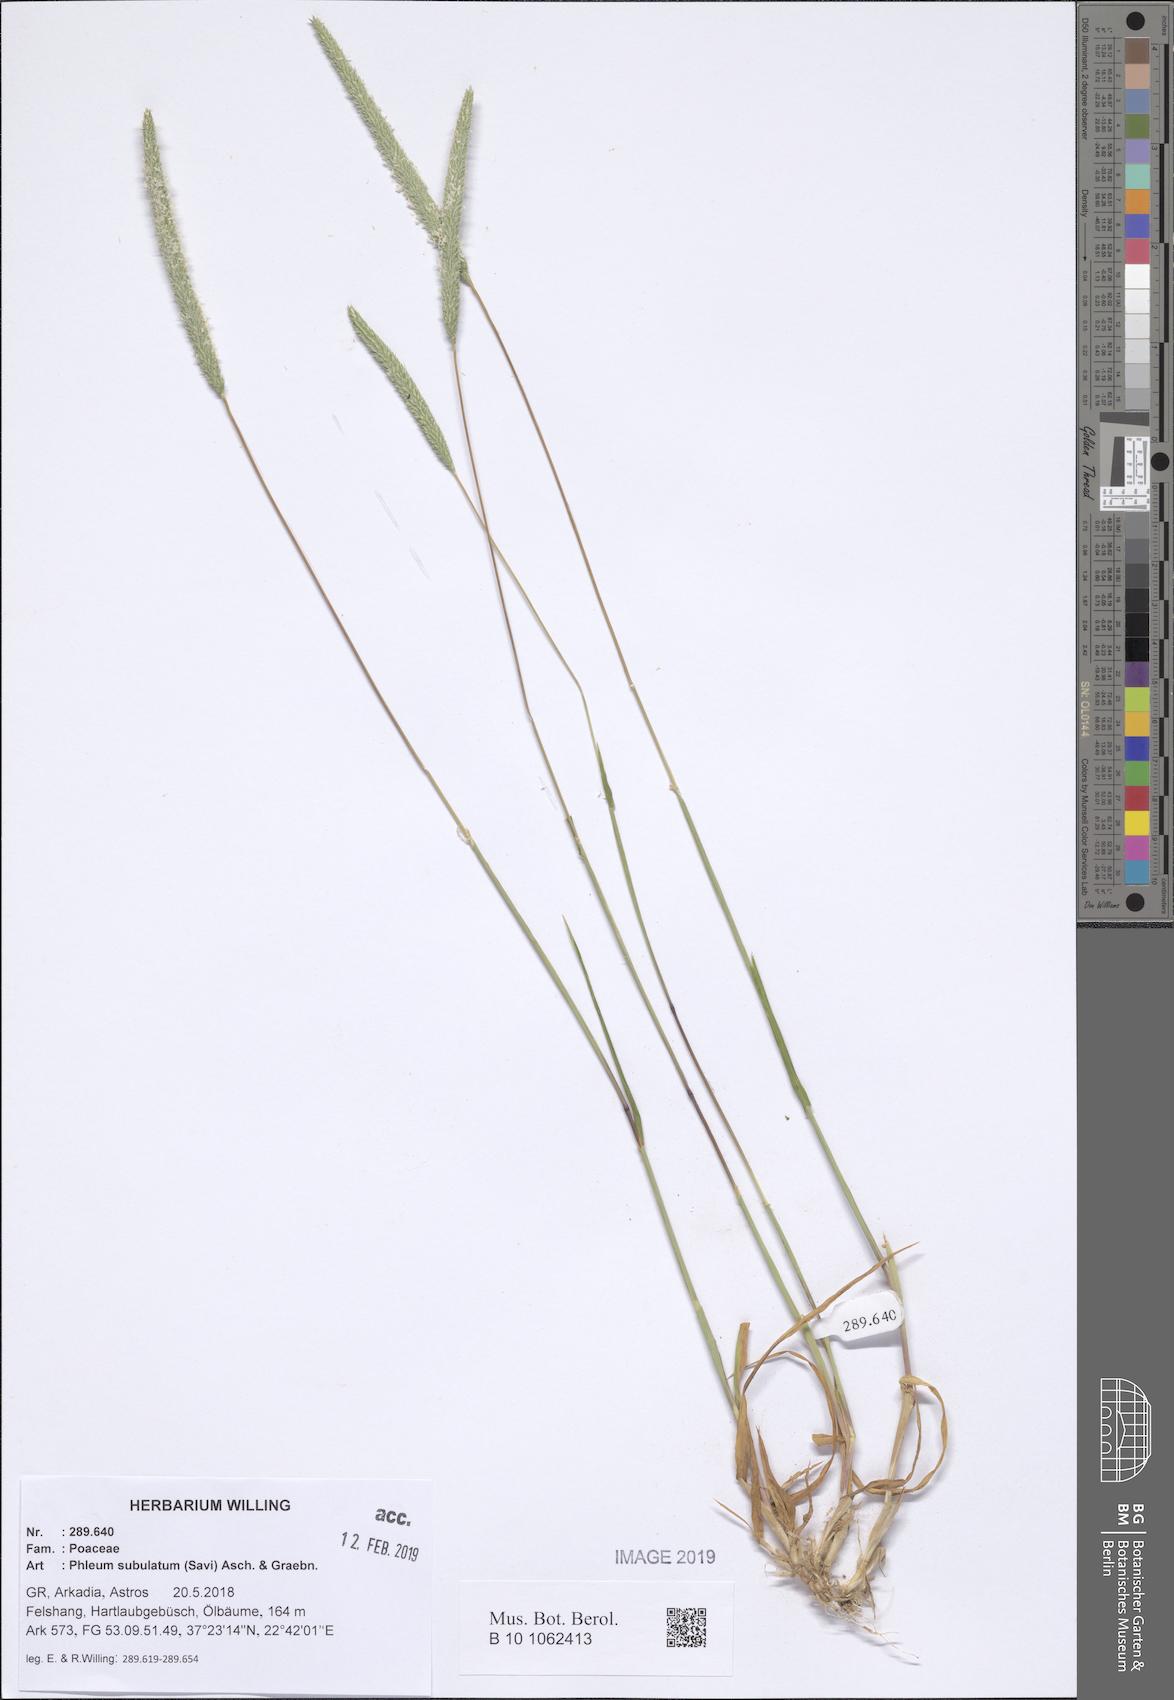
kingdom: Plantae
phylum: Tracheophyta
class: Liliopsida
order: Poales
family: Poaceae
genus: Phleum
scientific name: Phleum subulatum
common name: Italian timothy
